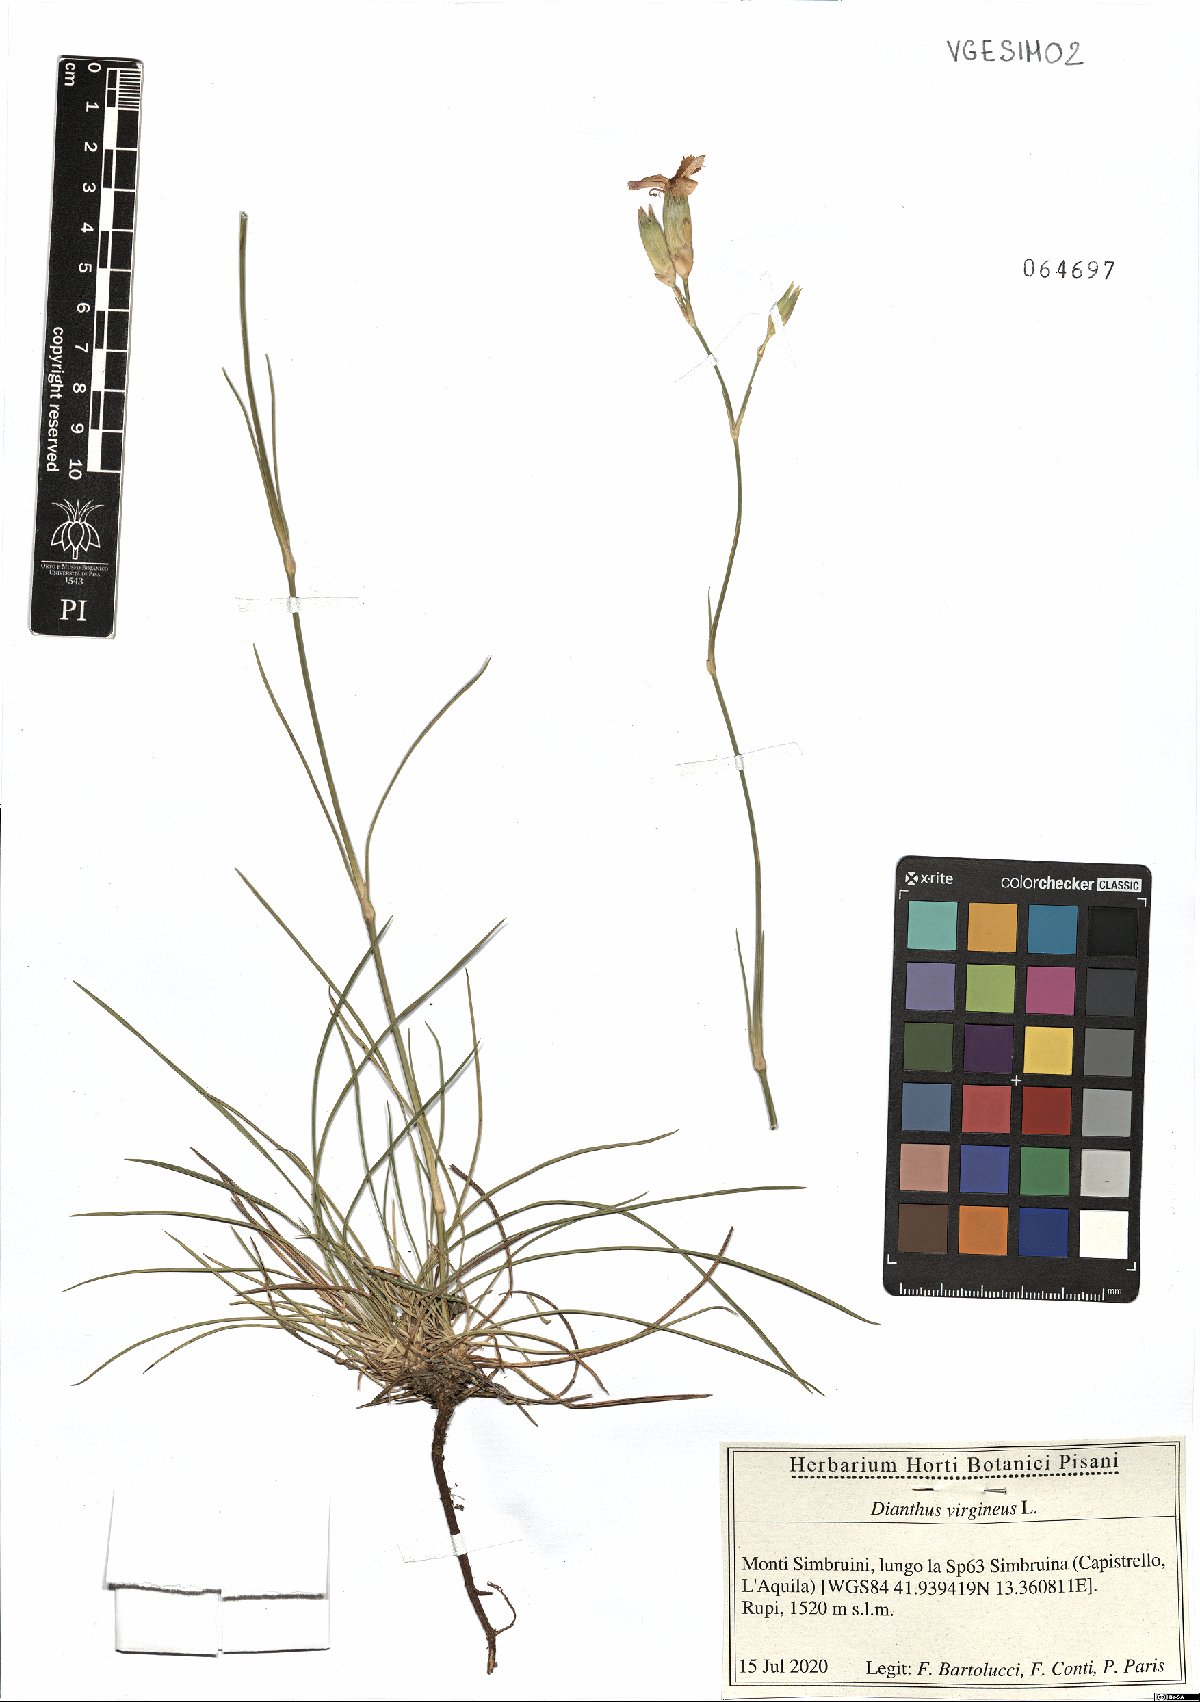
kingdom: Plantae
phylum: Tracheophyta
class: Magnoliopsida
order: Caryophyllales
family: Caryophyllaceae
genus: Dianthus
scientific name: Dianthus virgineus
